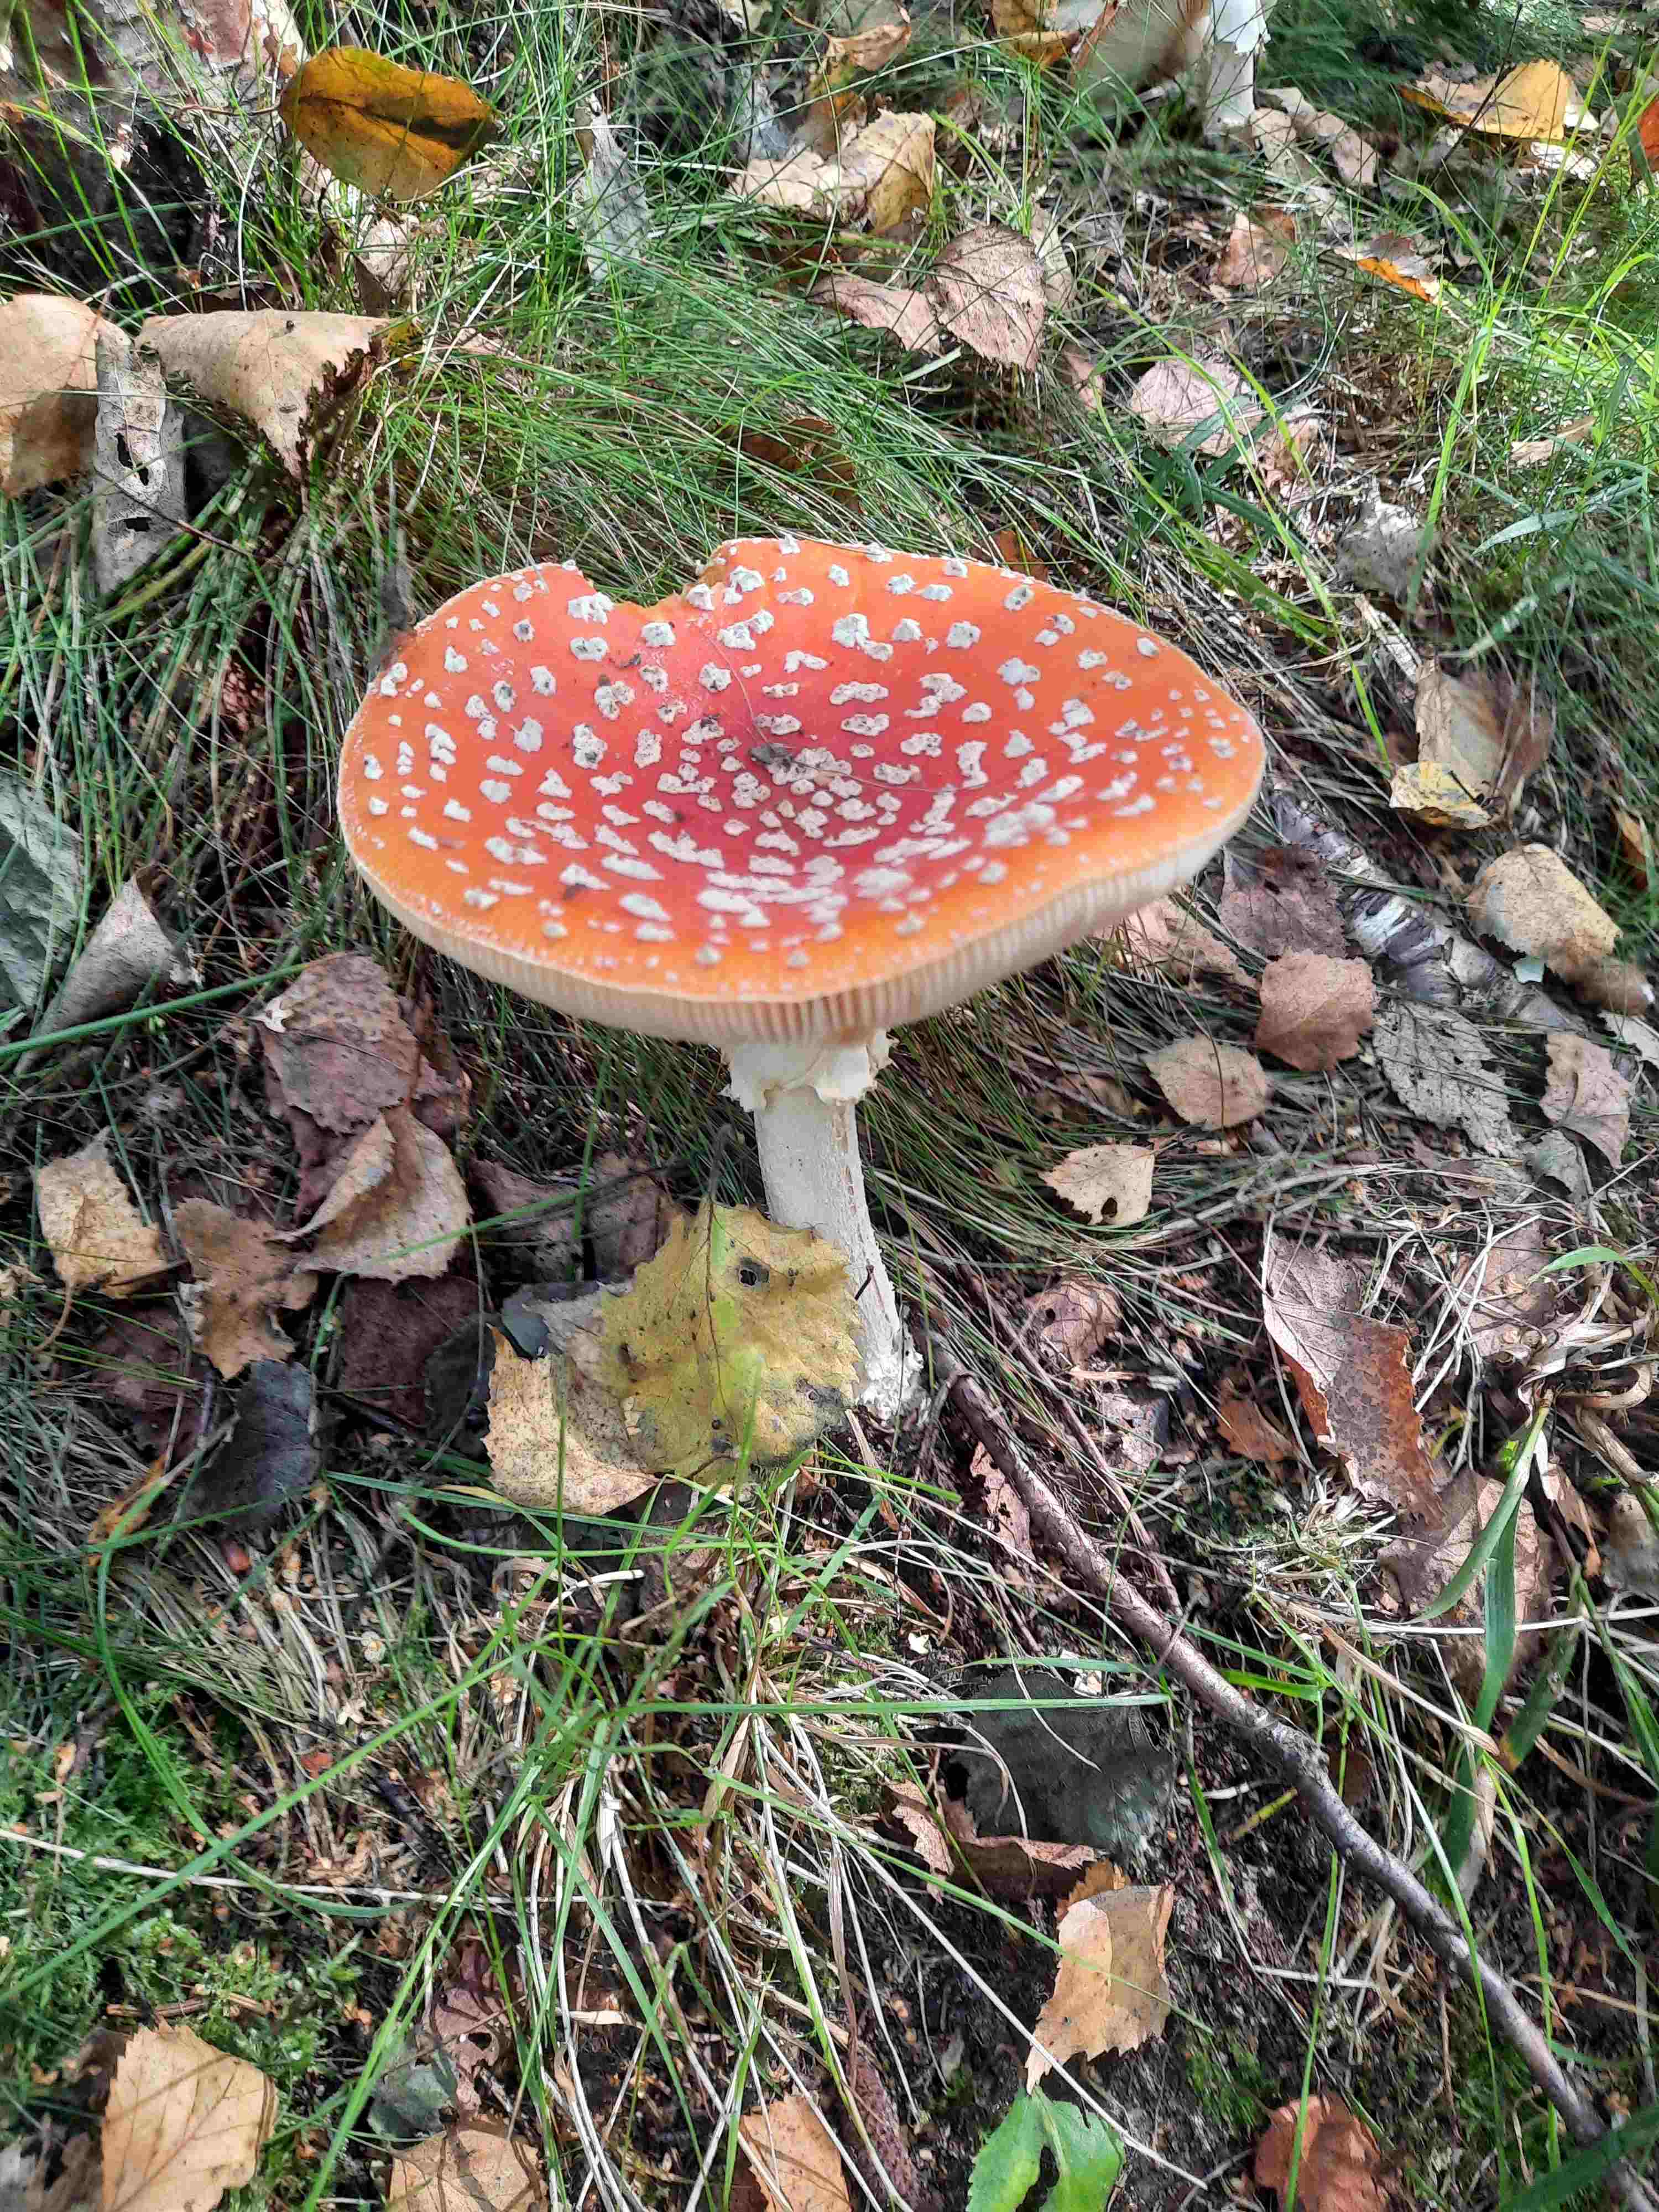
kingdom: Fungi
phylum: Basidiomycota
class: Agaricomycetes
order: Agaricales
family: Amanitaceae
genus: Amanita
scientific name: Amanita muscaria
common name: rød fluesvamp
